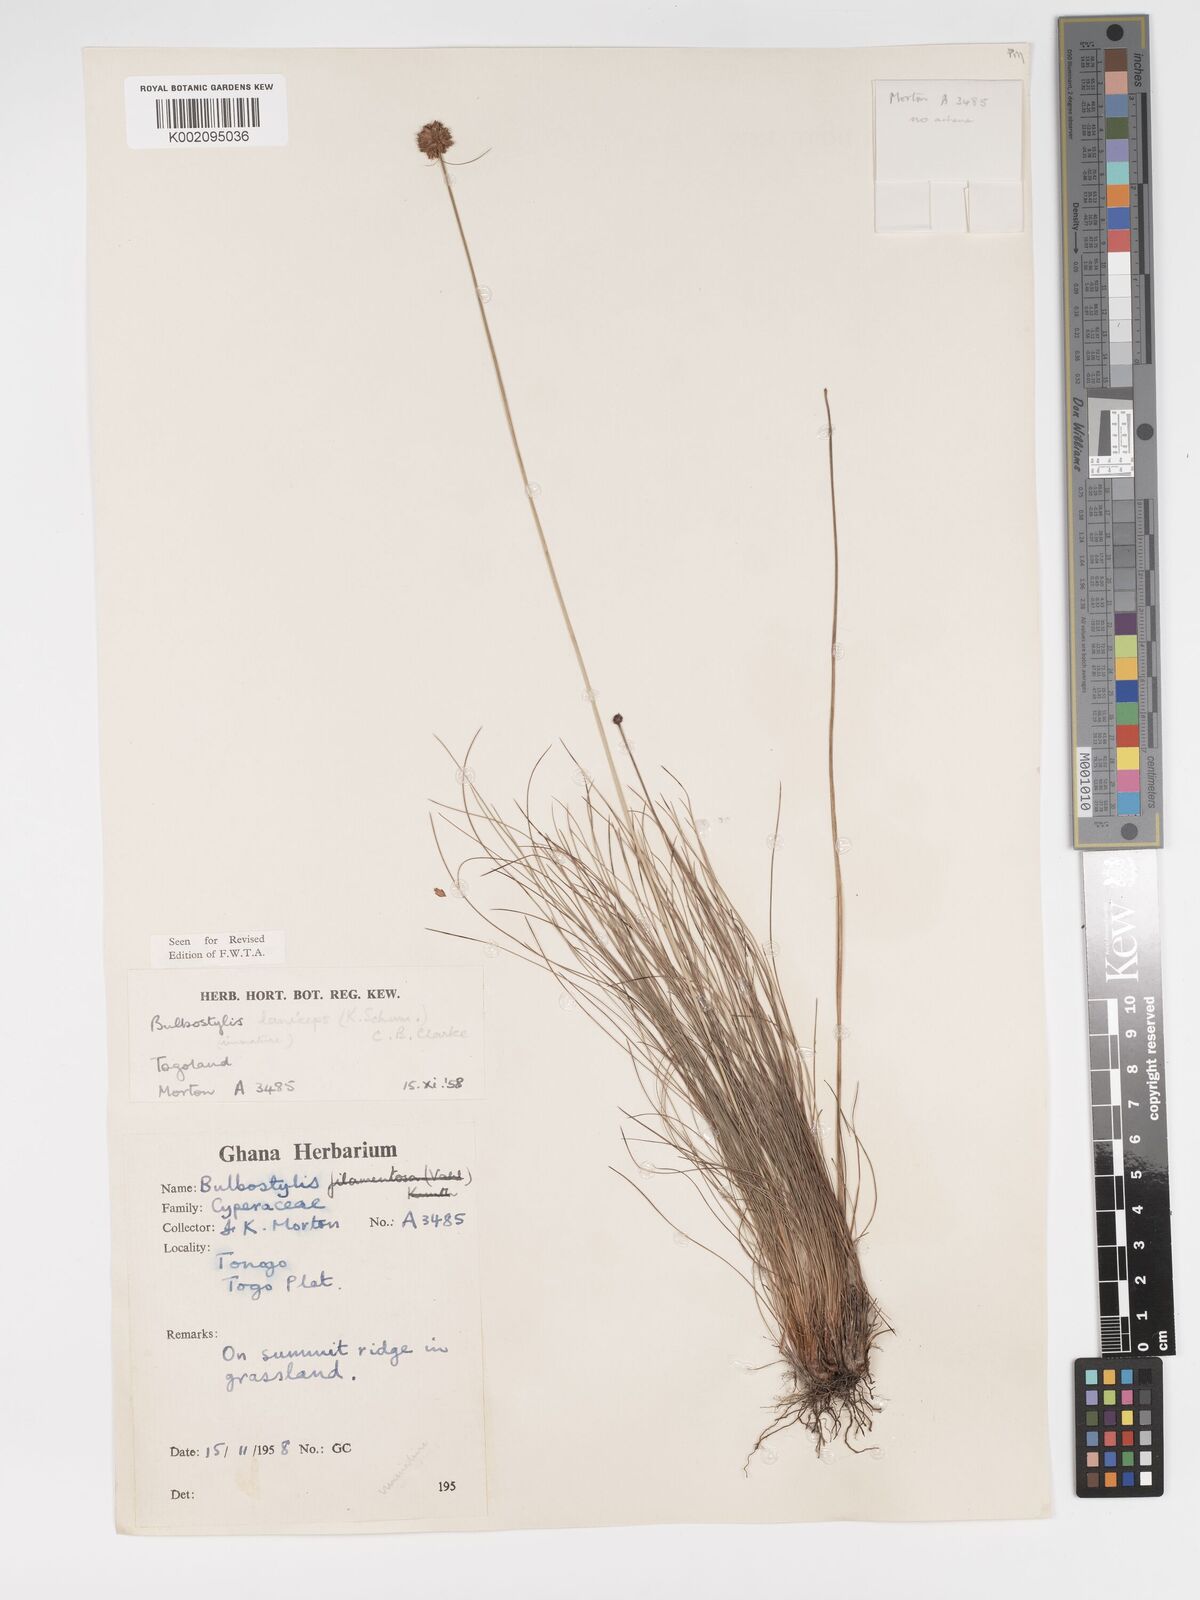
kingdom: Plantae
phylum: Tracheophyta
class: Liliopsida
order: Poales
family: Cyperaceae
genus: Bulbostylis
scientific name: Bulbostylis laniceps
